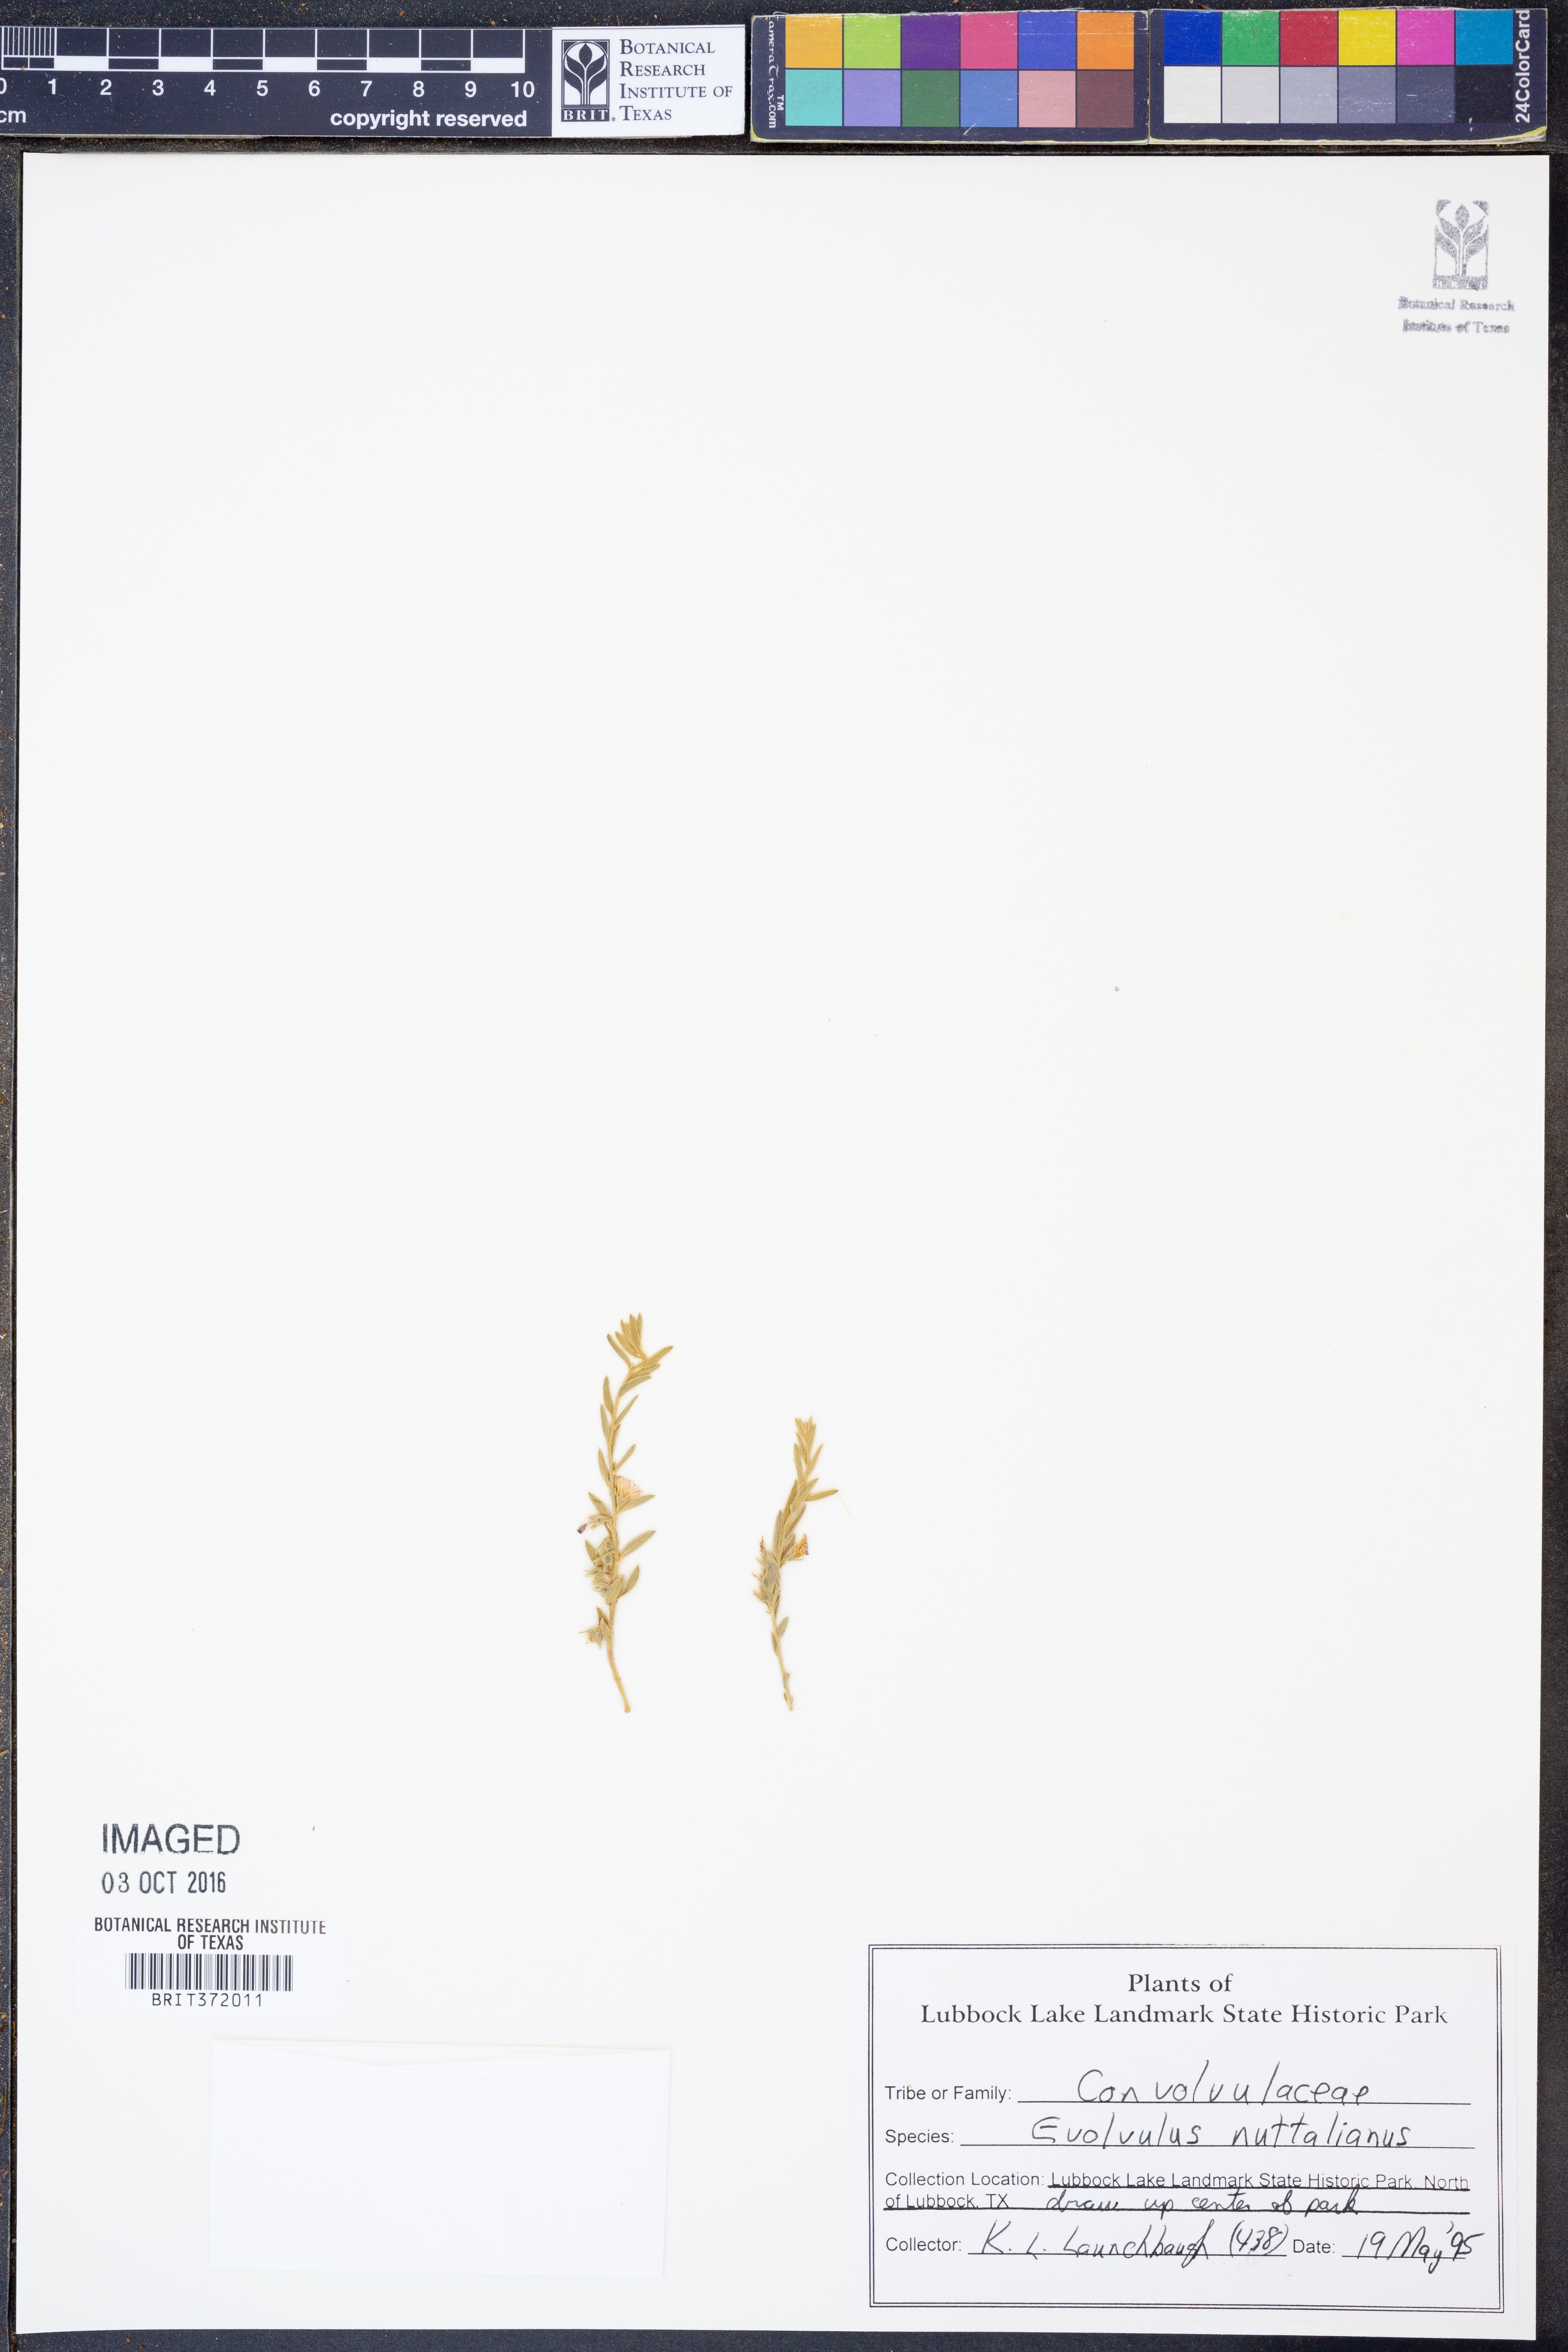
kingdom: Plantae
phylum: Tracheophyta
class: Magnoliopsida
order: Solanales
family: Convolvulaceae
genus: Evolvulus
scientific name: Evolvulus nuttallianus
